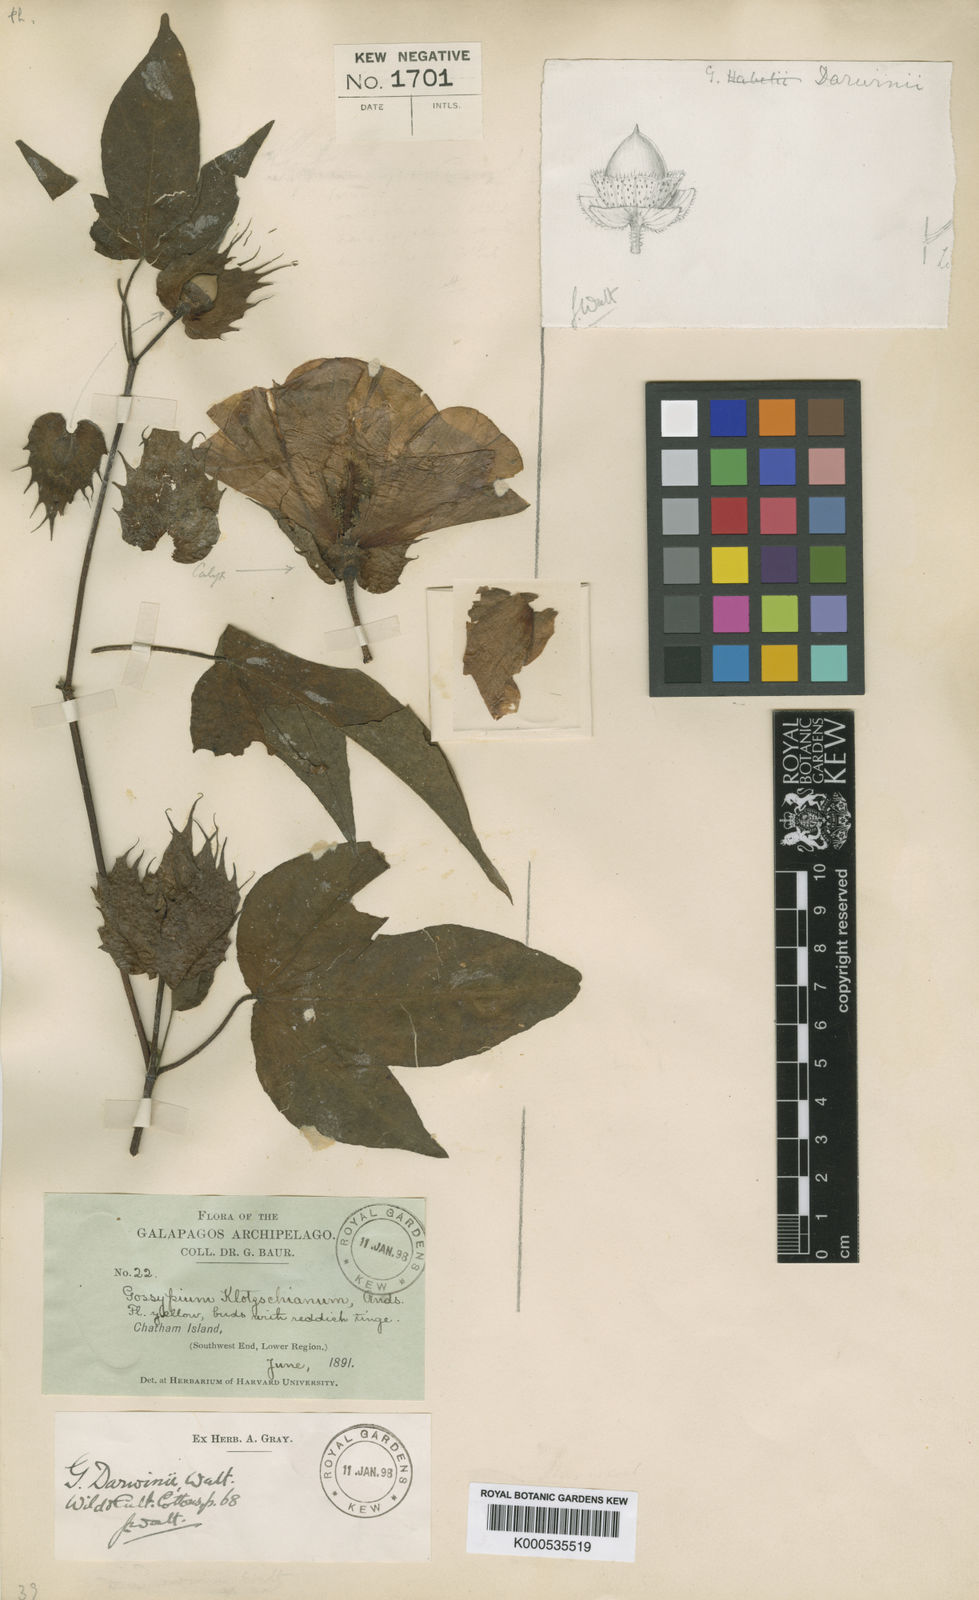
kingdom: Plantae
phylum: Tracheophyta
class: Magnoliopsida
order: Malvales
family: Malvaceae
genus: Gossypium
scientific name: Gossypium barbadense
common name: Creole cotton
